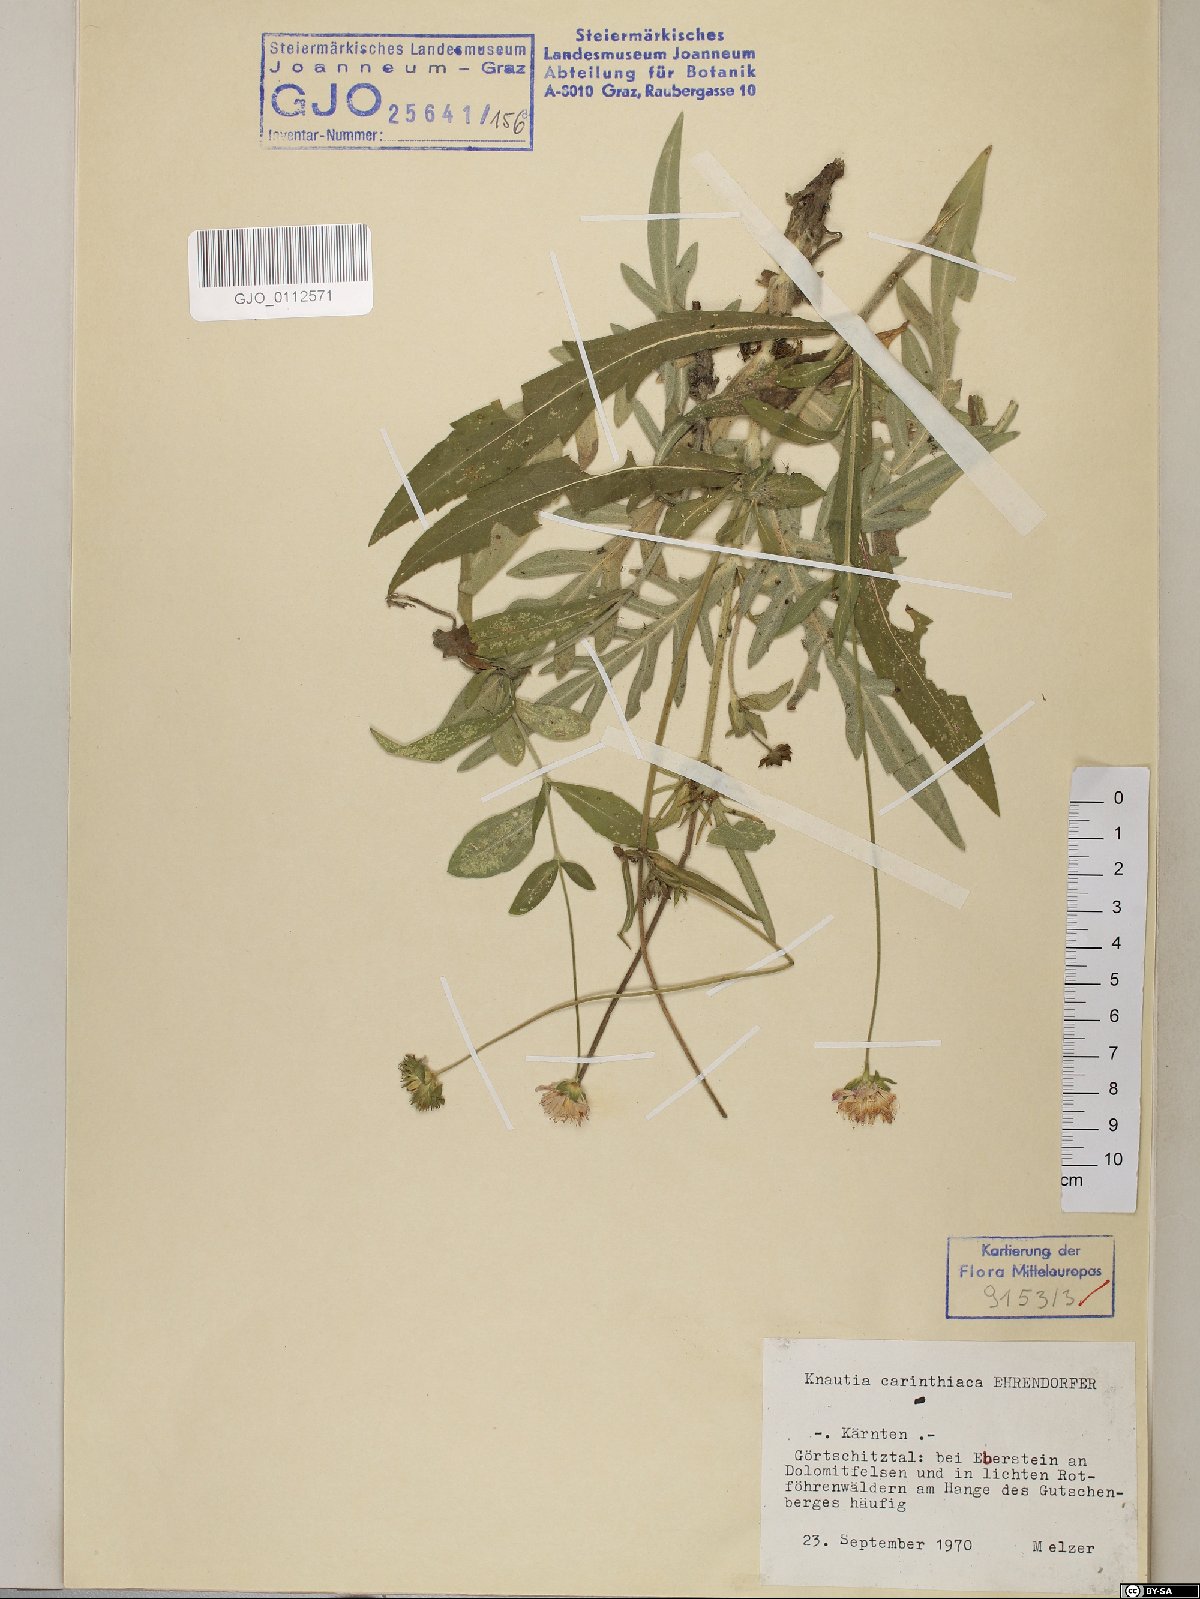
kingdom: Plantae
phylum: Tracheophyta
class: Magnoliopsida
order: Dipsacales
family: Caprifoliaceae
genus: Knautia
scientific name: Knautia carinthiaca
